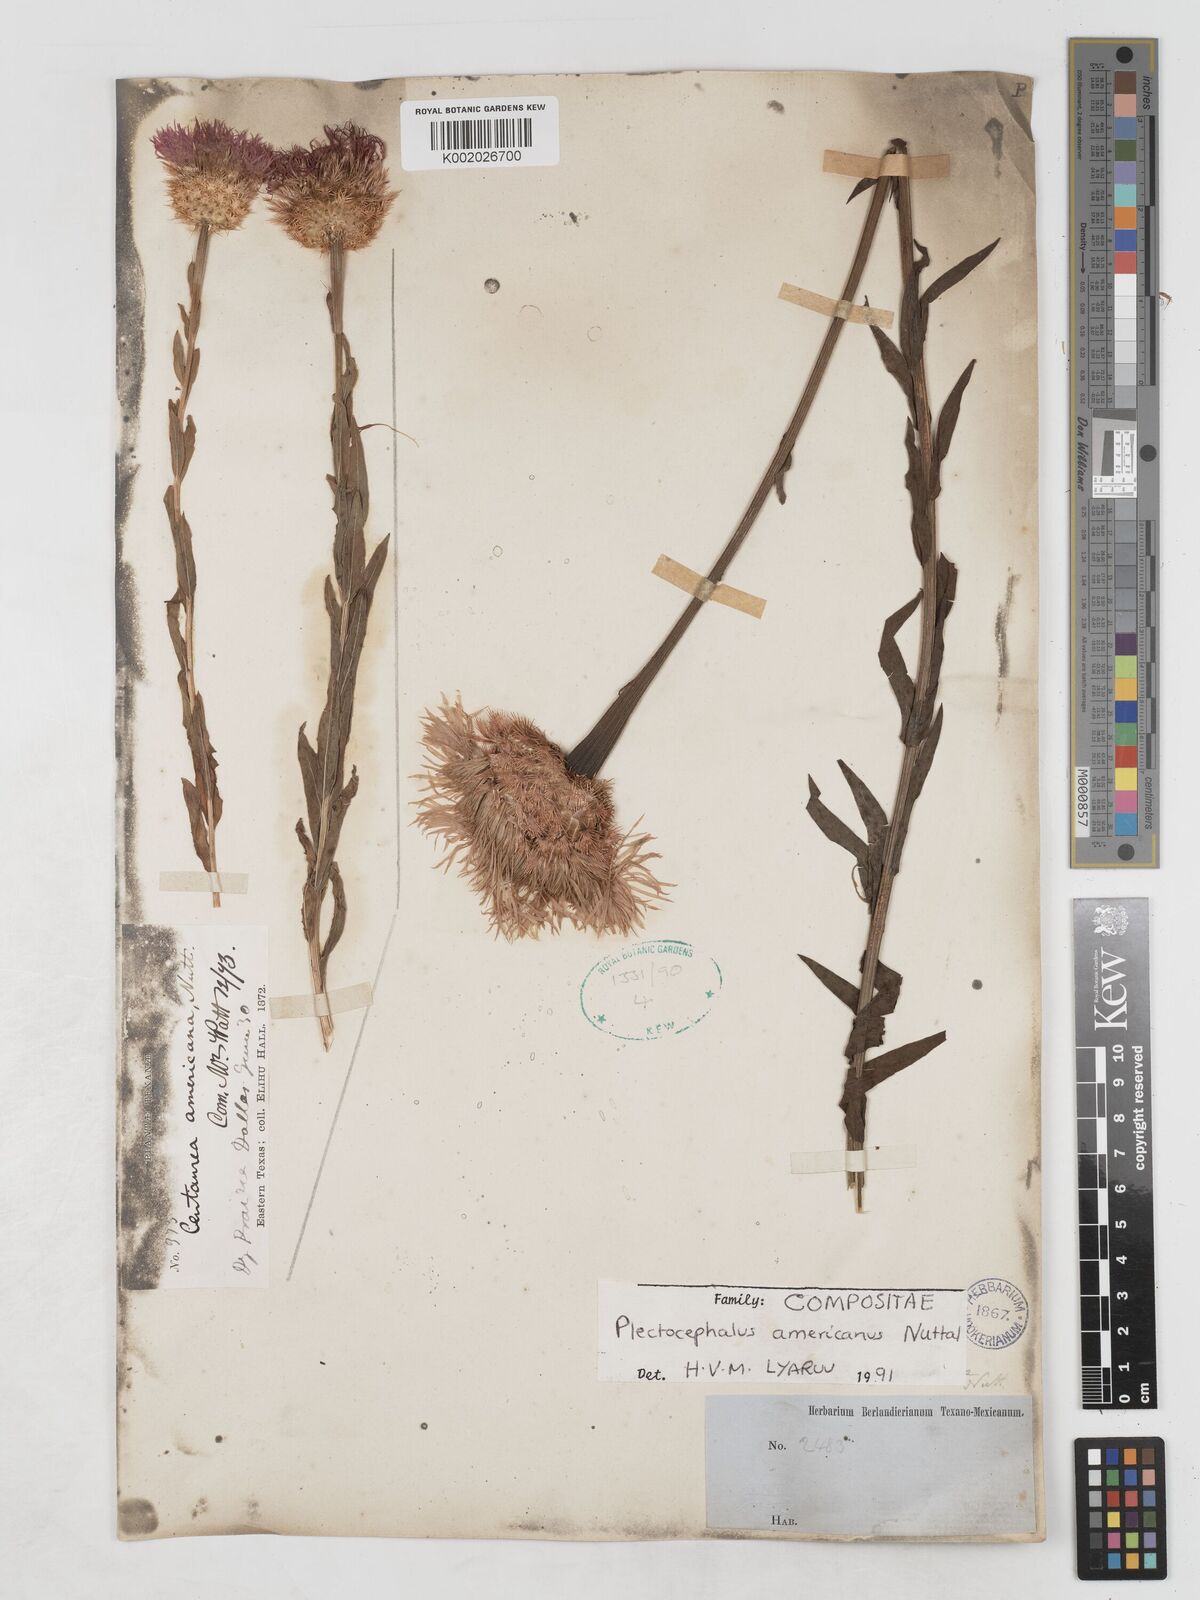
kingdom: Plantae
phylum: Tracheophyta
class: Magnoliopsida
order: Asterales
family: Asteraceae
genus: Plectocephalus
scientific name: Plectocephalus americanus
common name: American basket-flower
